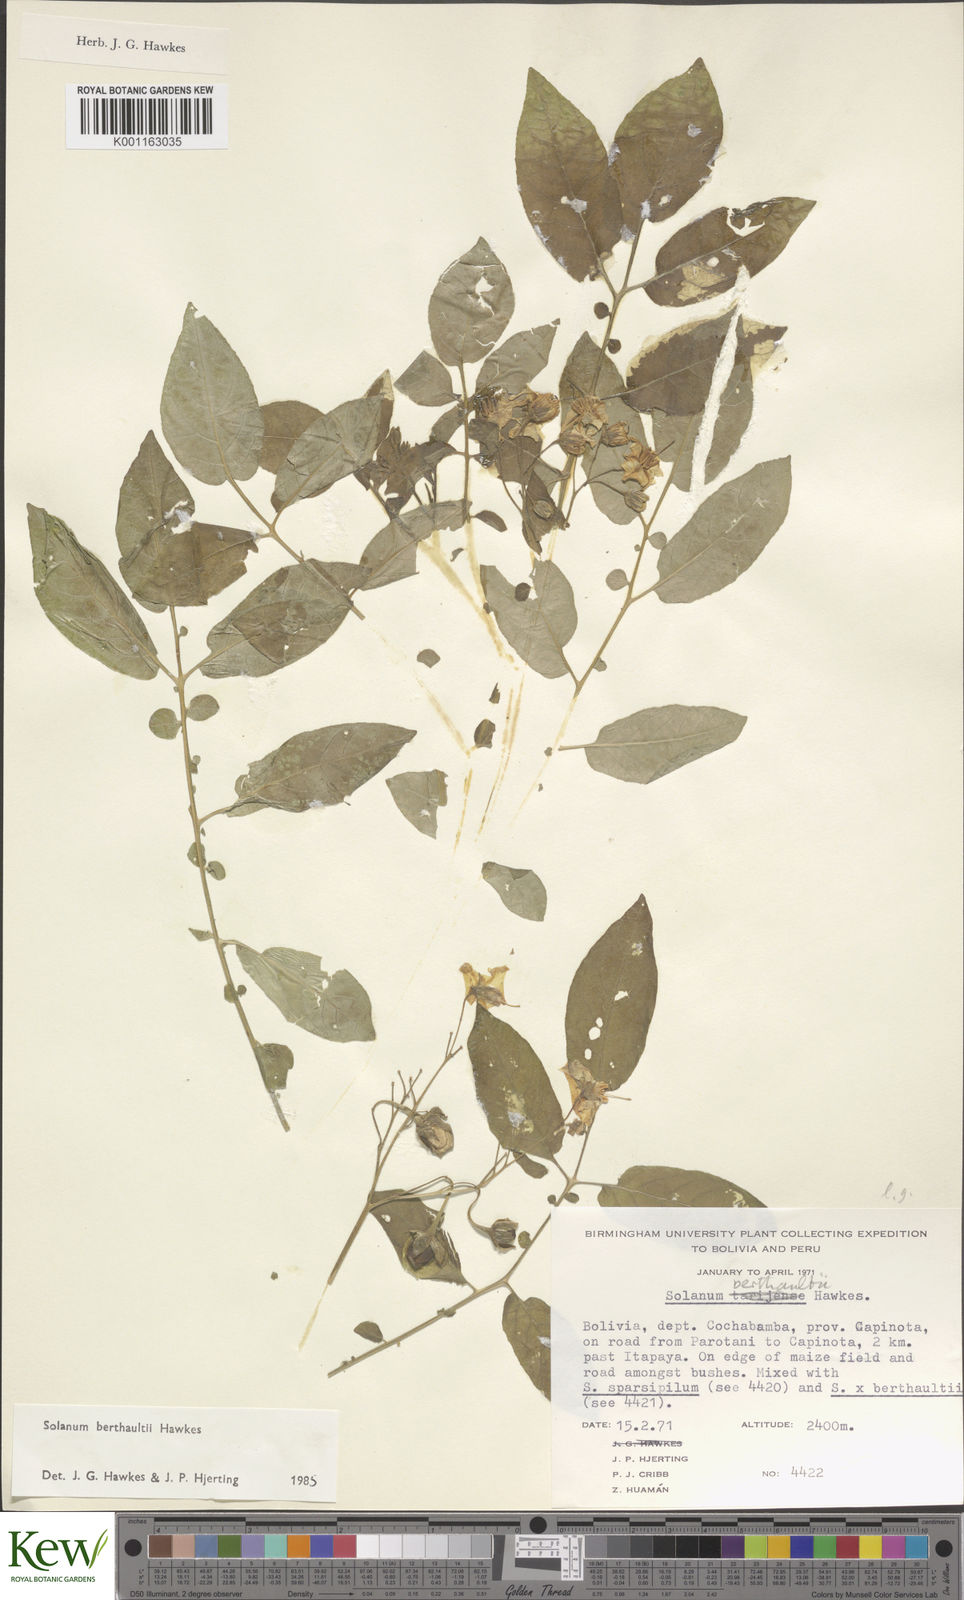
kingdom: Plantae
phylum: Tracheophyta
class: Magnoliopsida
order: Solanales
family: Solanaceae
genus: Solanum
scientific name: Solanum berthaultii
